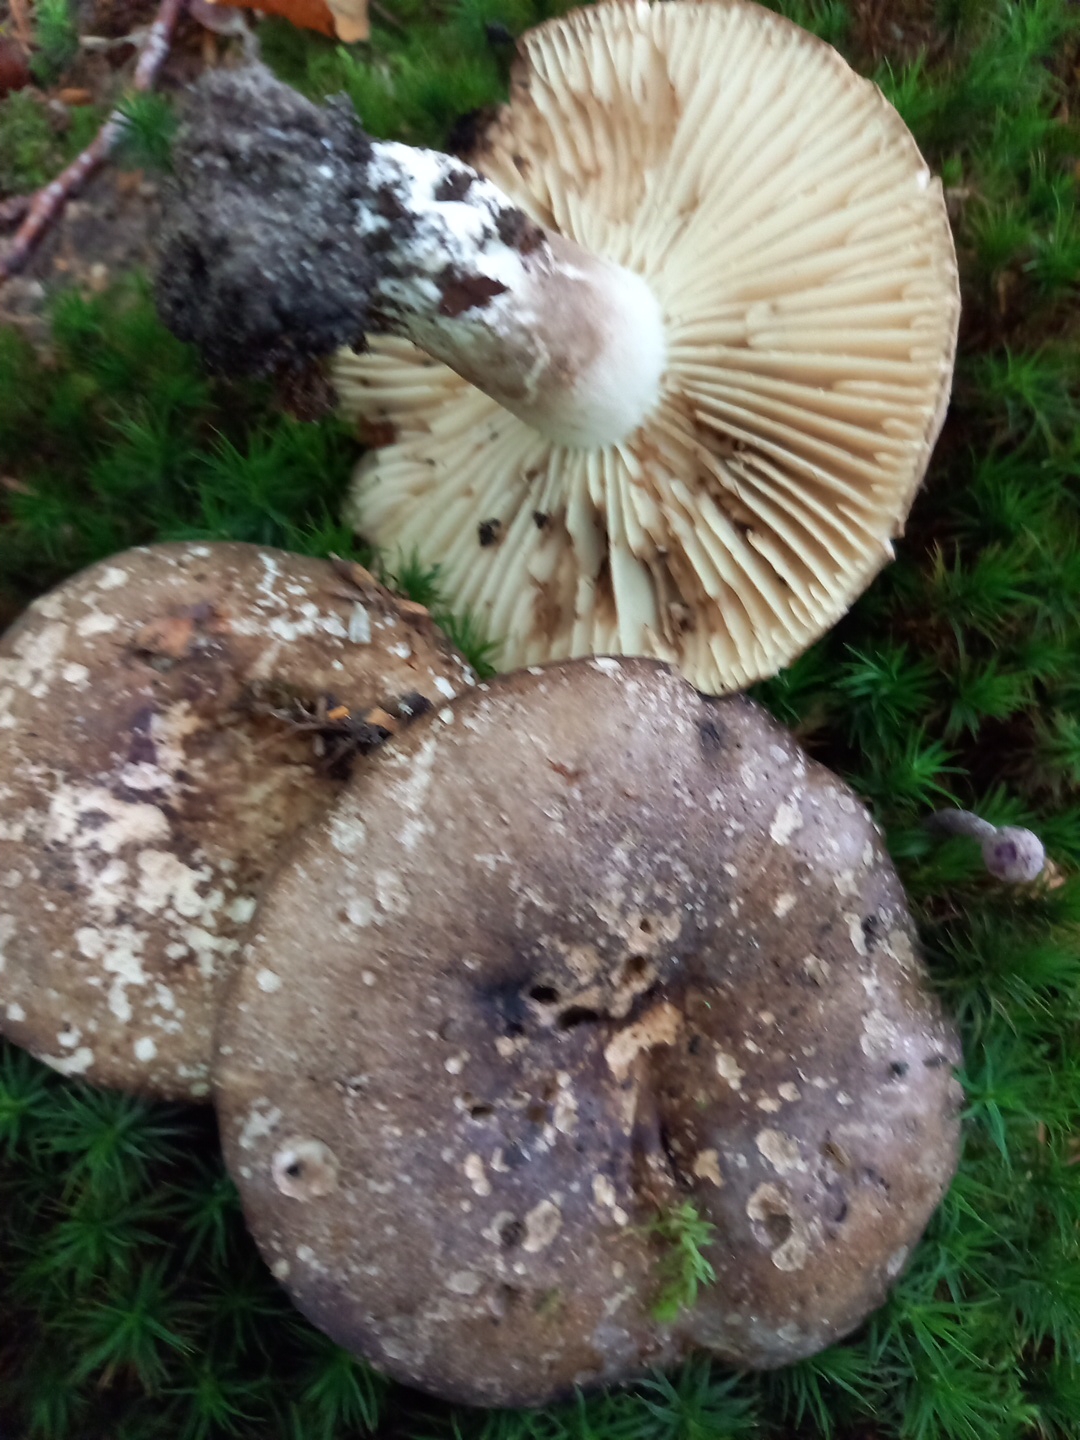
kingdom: Fungi
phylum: Basidiomycota
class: Agaricomycetes
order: Russulales
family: Russulaceae
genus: Russula
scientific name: Russula adusta
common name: sværtende skørhat
